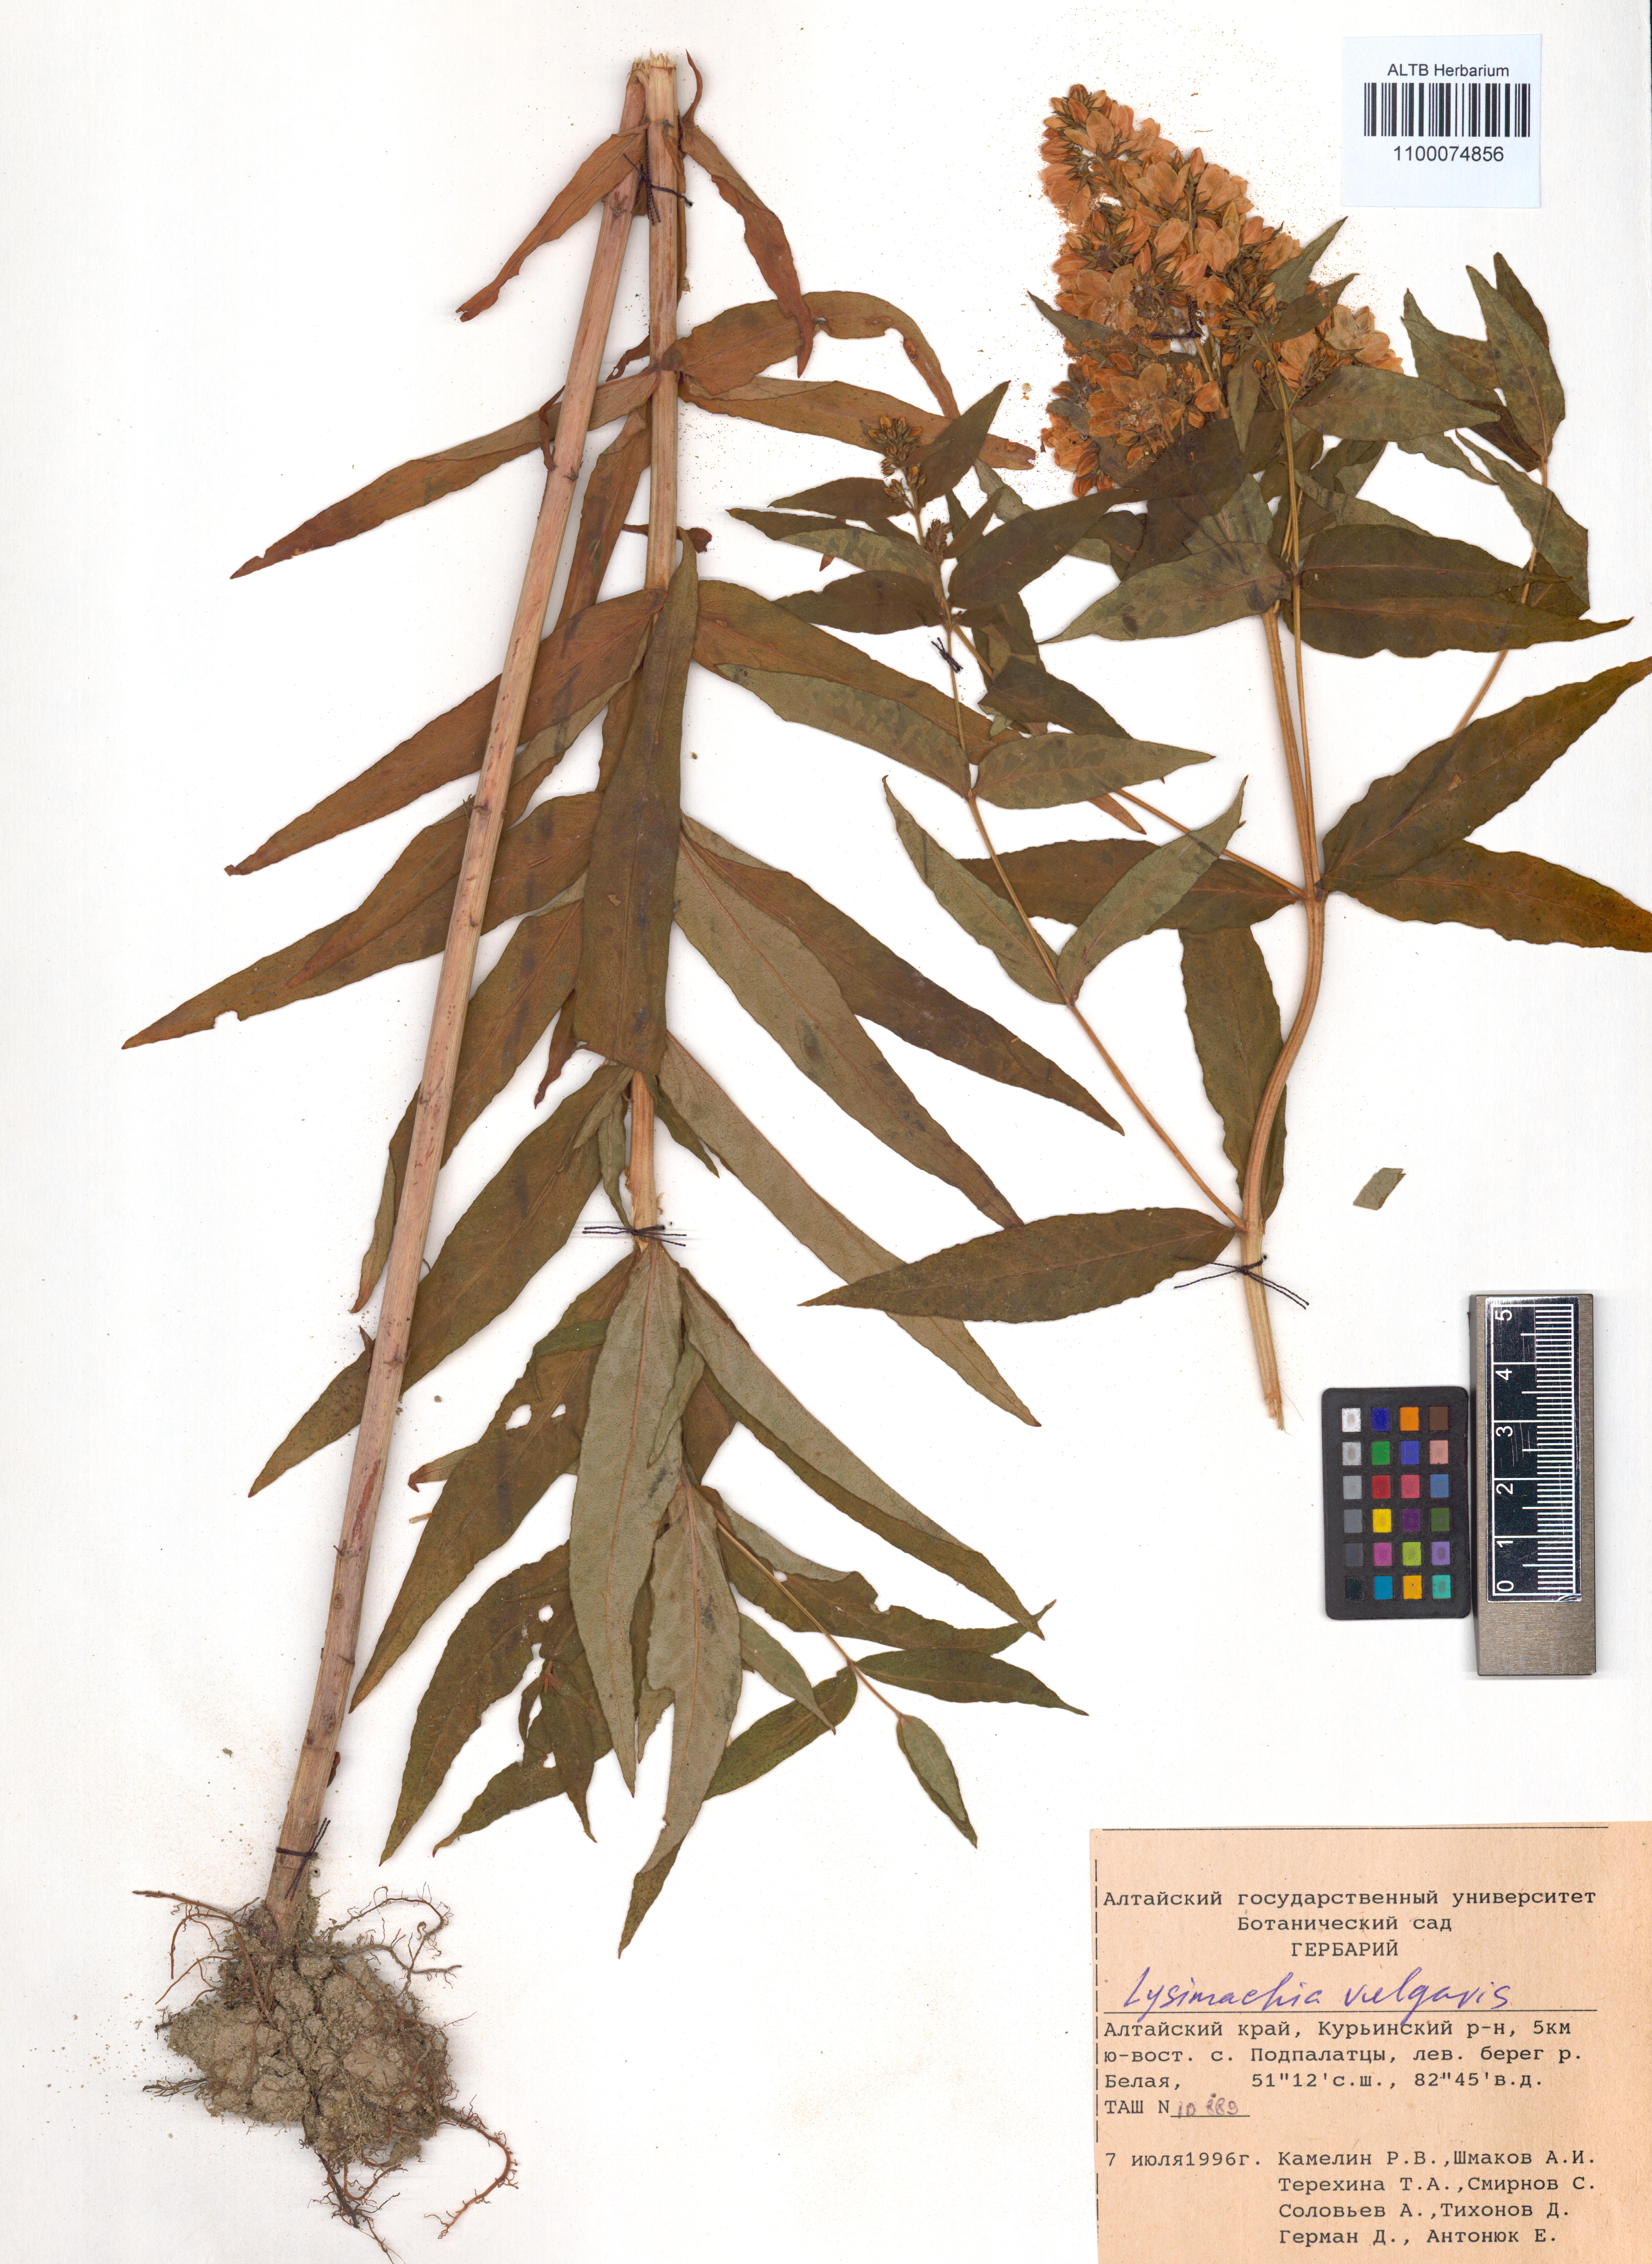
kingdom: Plantae
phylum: Tracheophyta
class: Magnoliopsida
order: Ericales
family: Primulaceae
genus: Lysimachia
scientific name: Lysimachia vulgaris
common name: Yellow loosestrife
